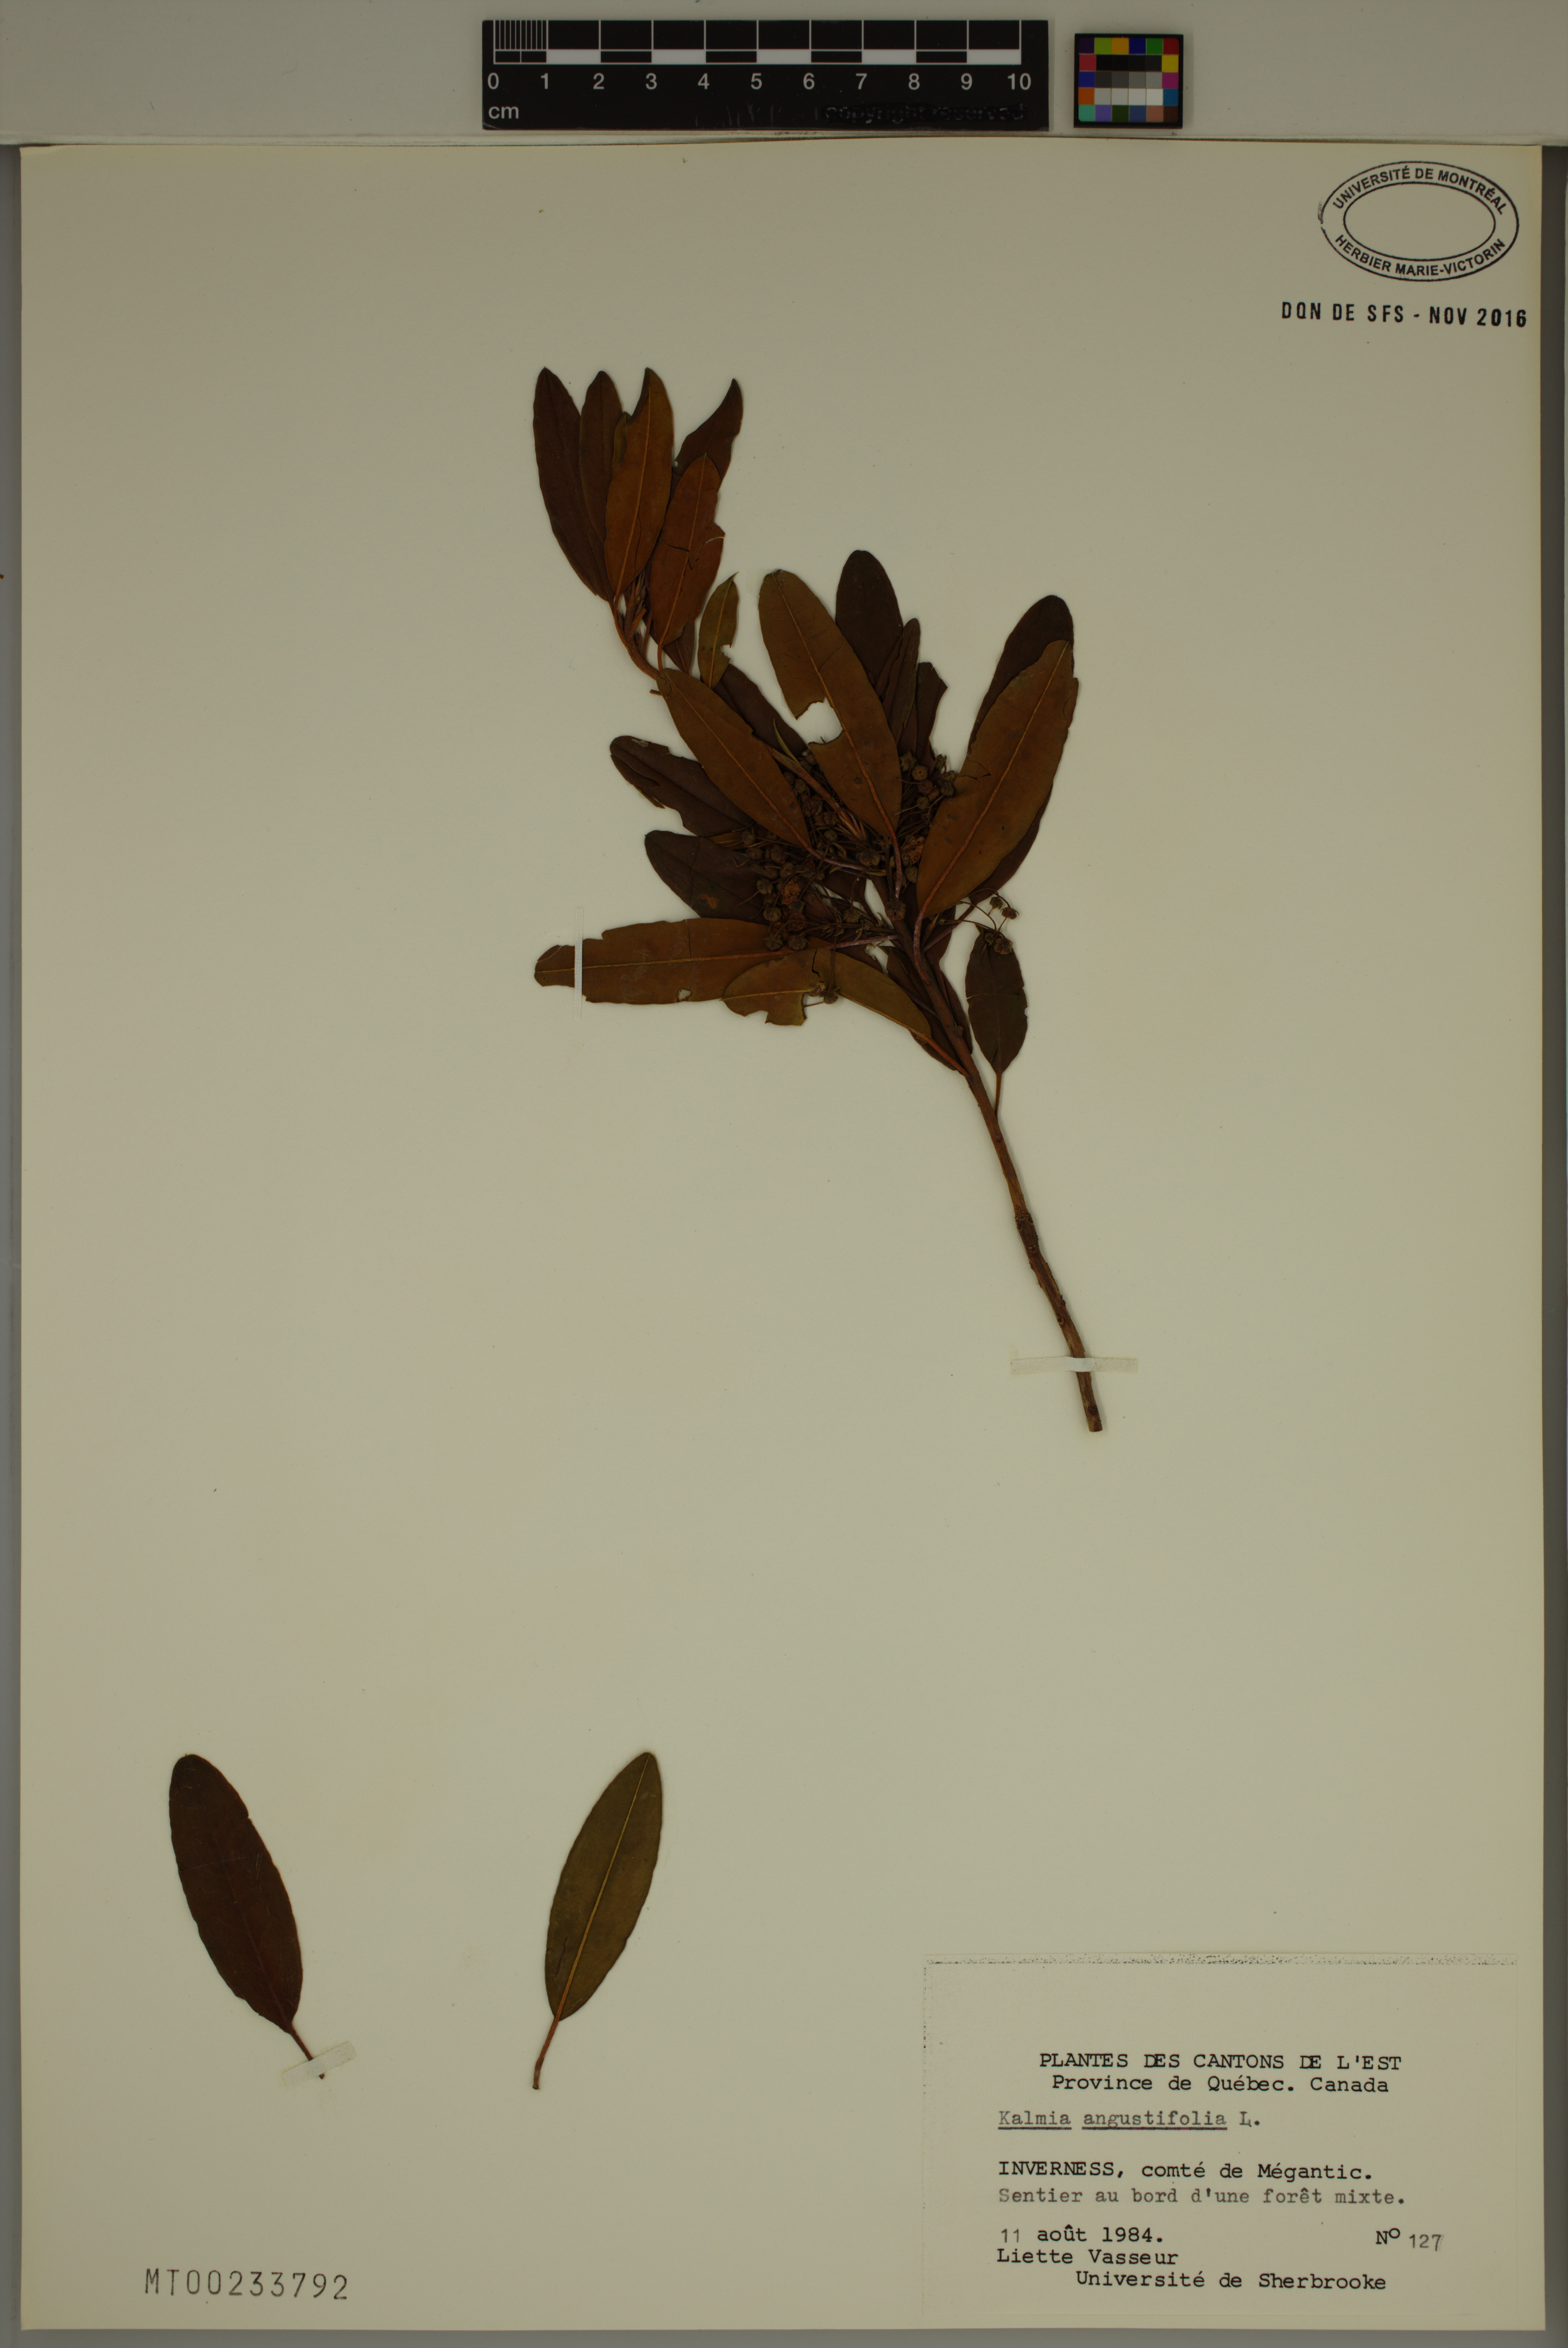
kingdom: Plantae
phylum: Tracheophyta
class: Magnoliopsida
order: Ericales
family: Ericaceae
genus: Kalmia
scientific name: Kalmia angustifolia
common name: Sheep-laurel
